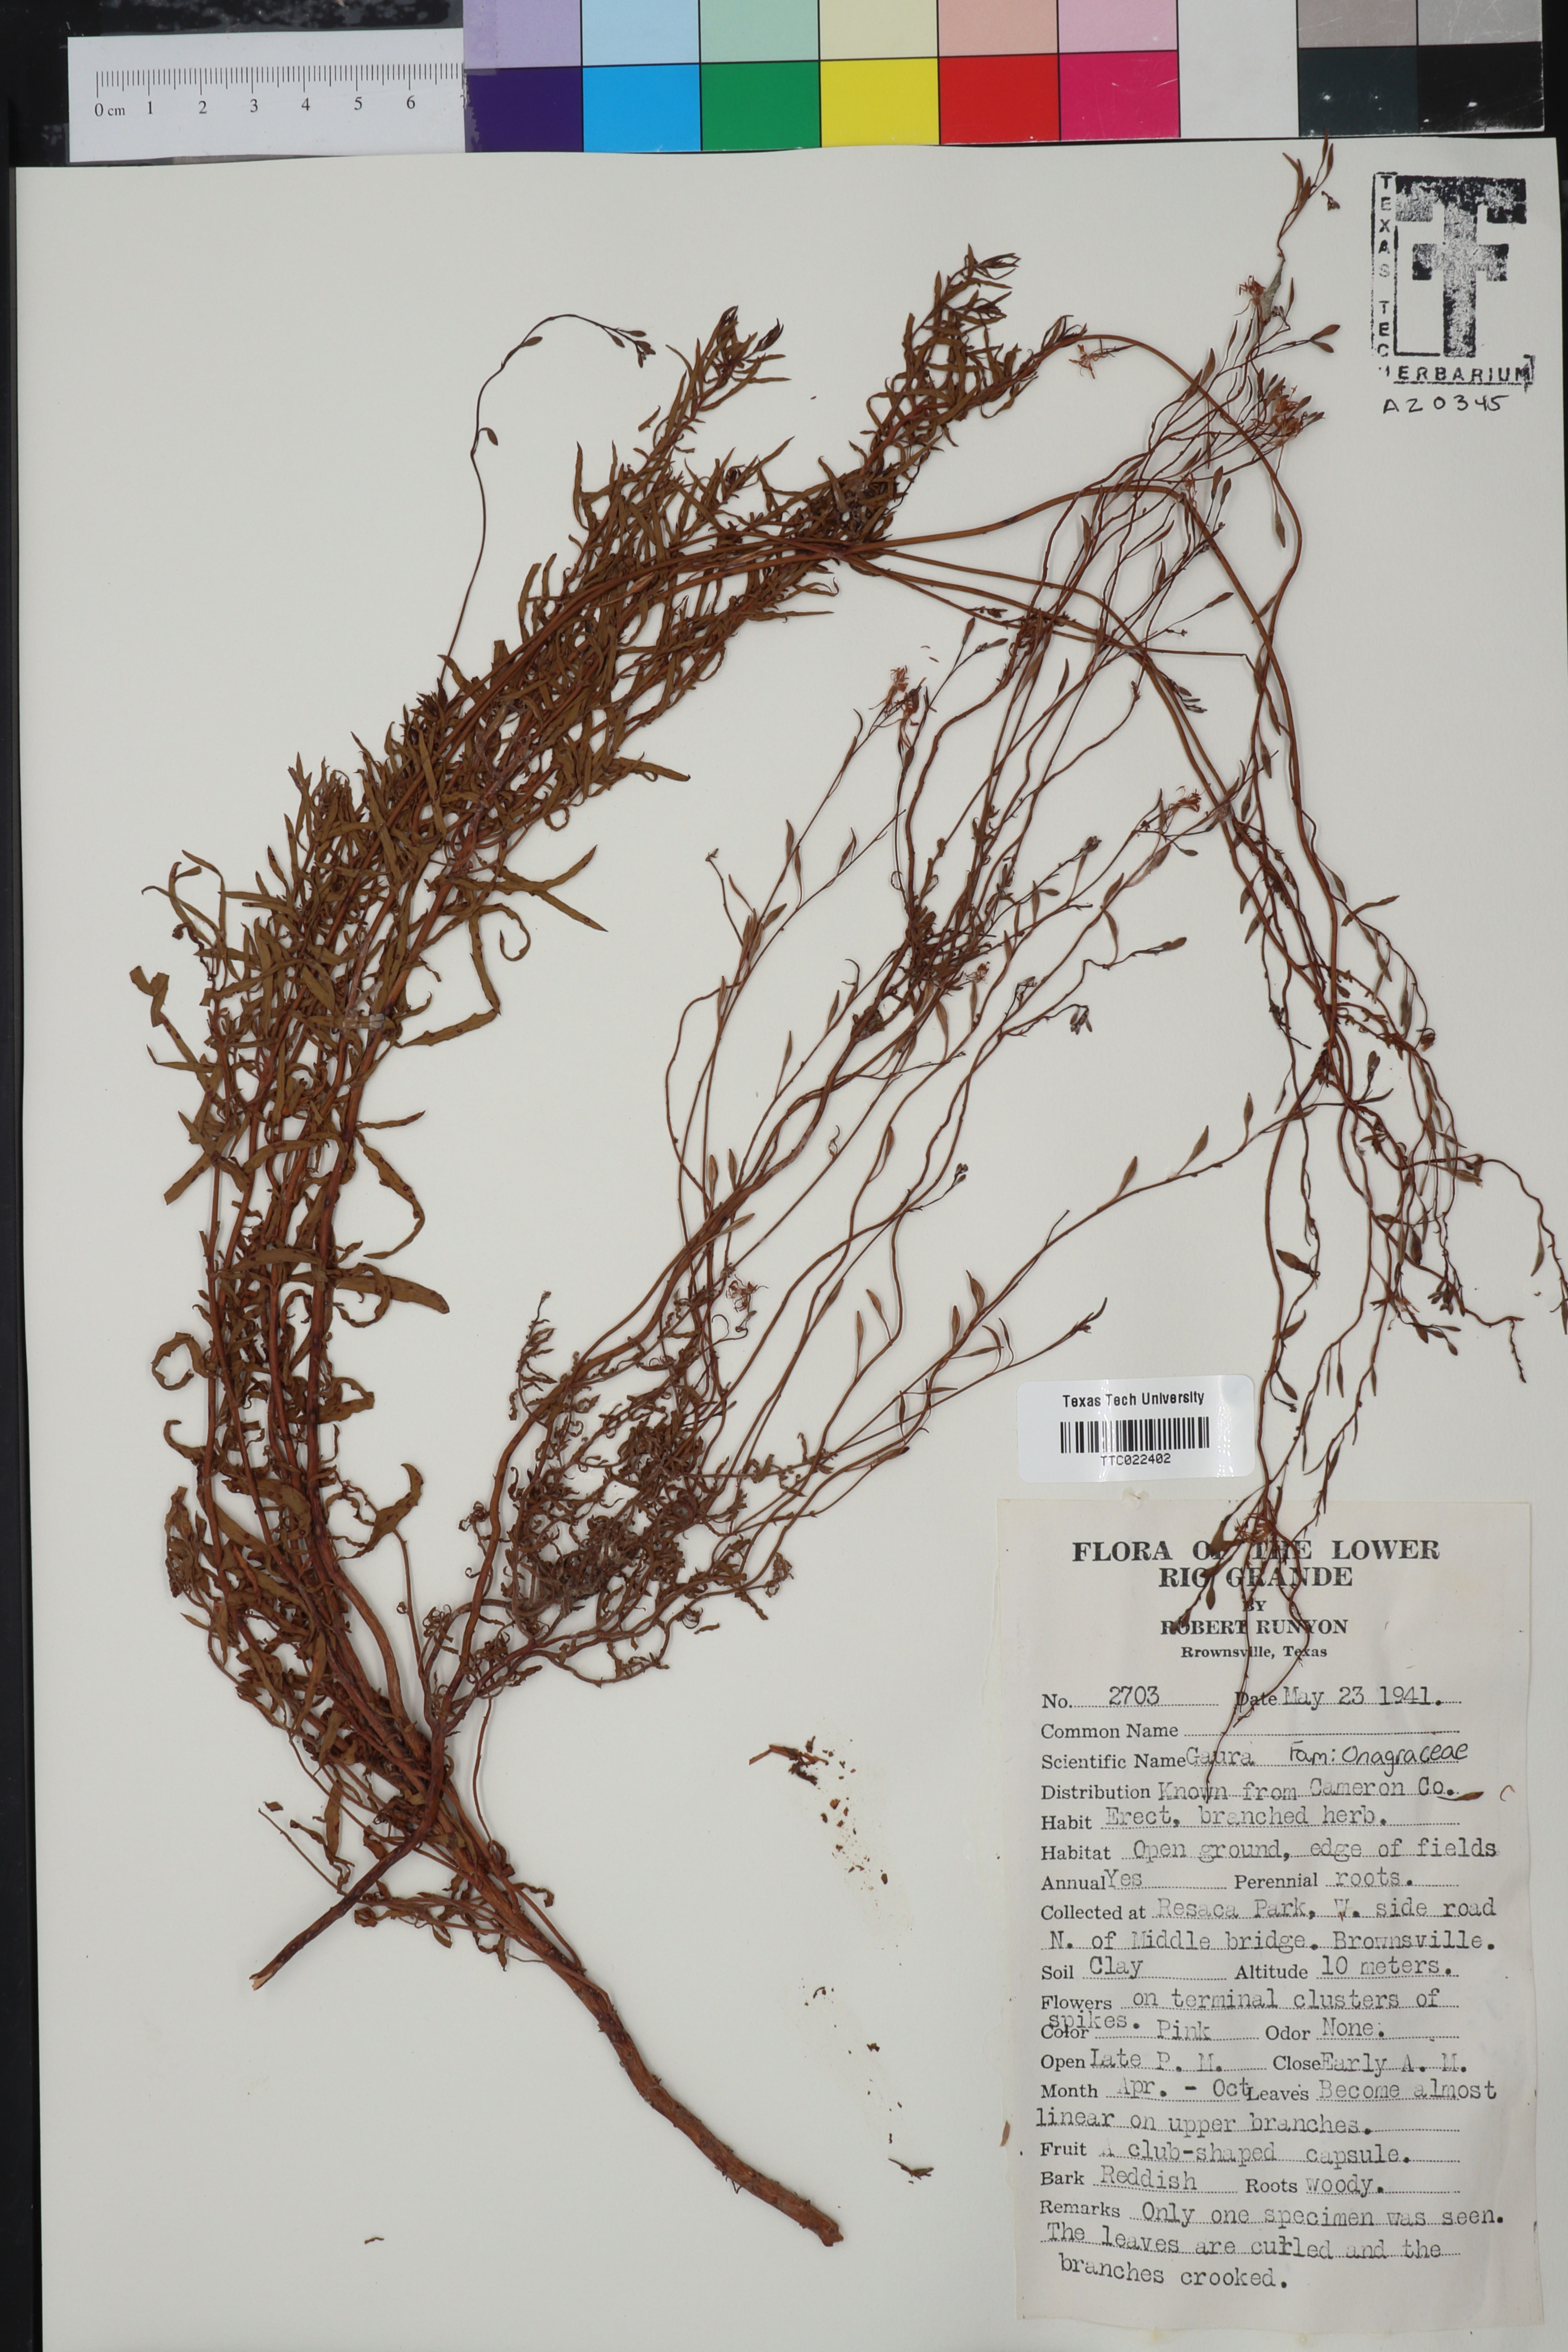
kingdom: Plantae
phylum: Tracheophyta
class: Magnoliopsida
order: Myrtales
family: Onagraceae
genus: Oenothera
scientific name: Oenothera
